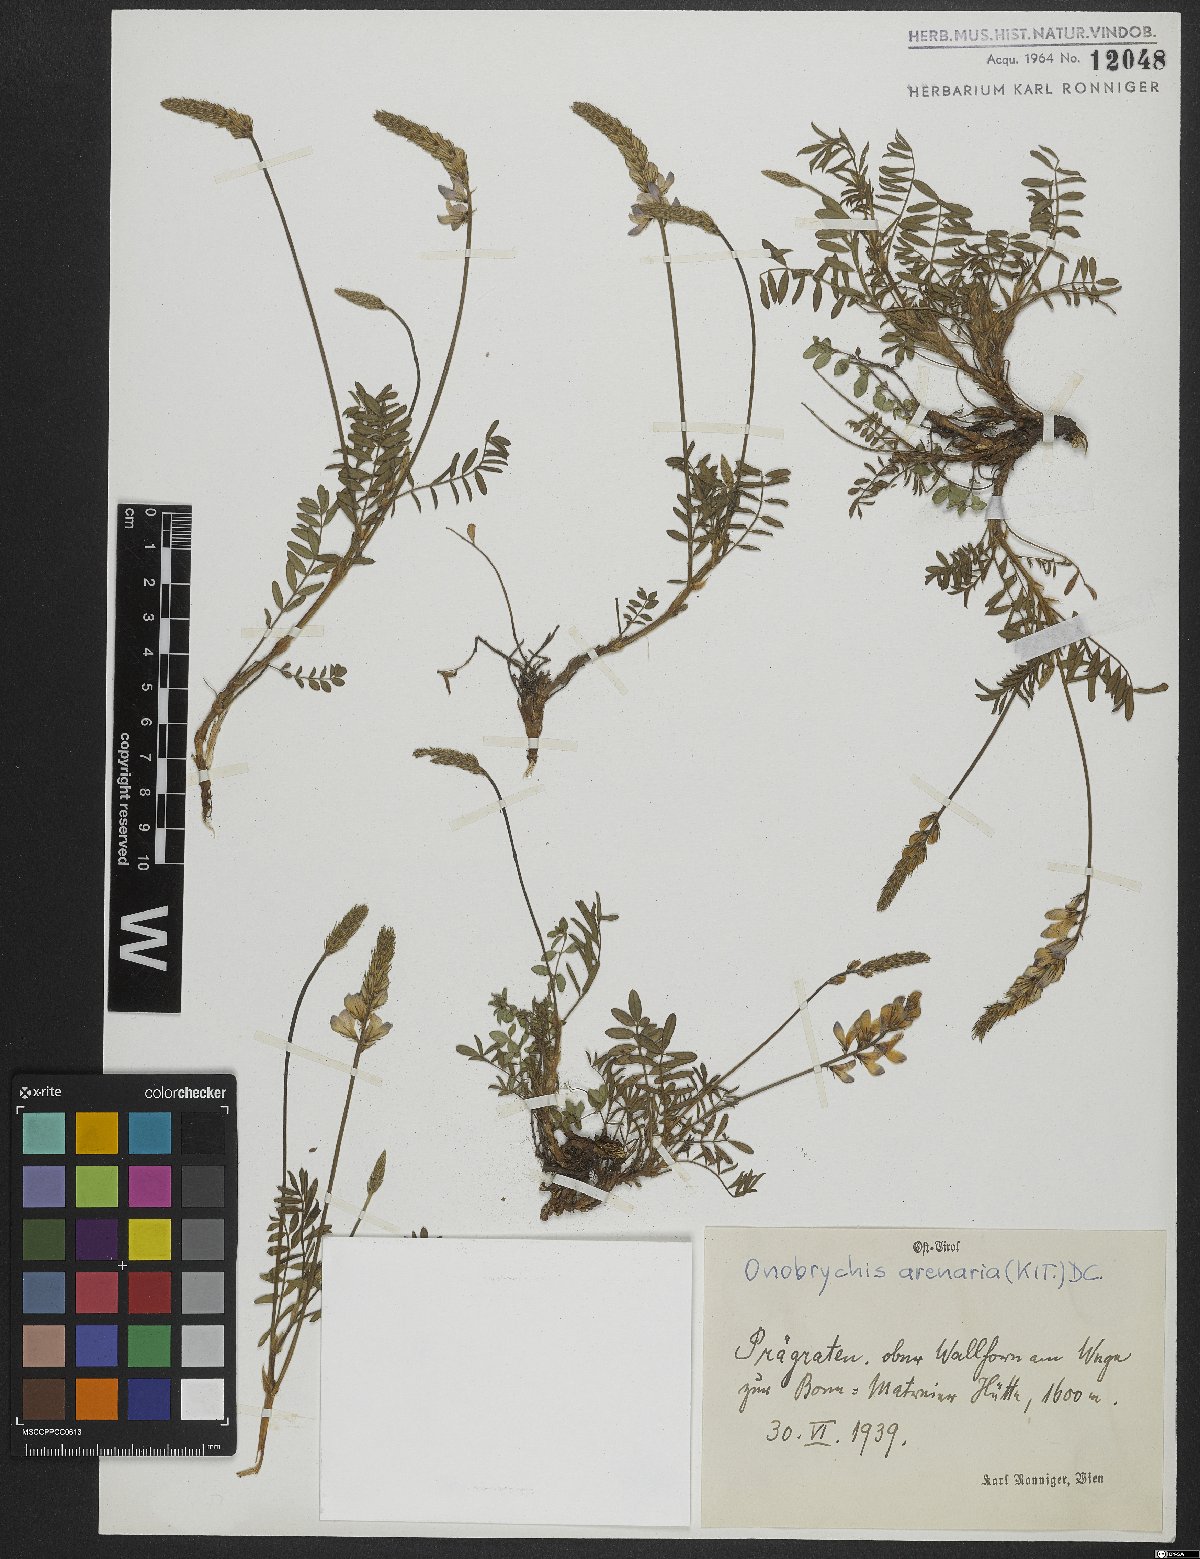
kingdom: Plantae
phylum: Tracheophyta
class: Magnoliopsida
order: Fabales
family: Fabaceae
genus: Onobrychis
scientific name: Onobrychis arenaria
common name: Sand esparcet
